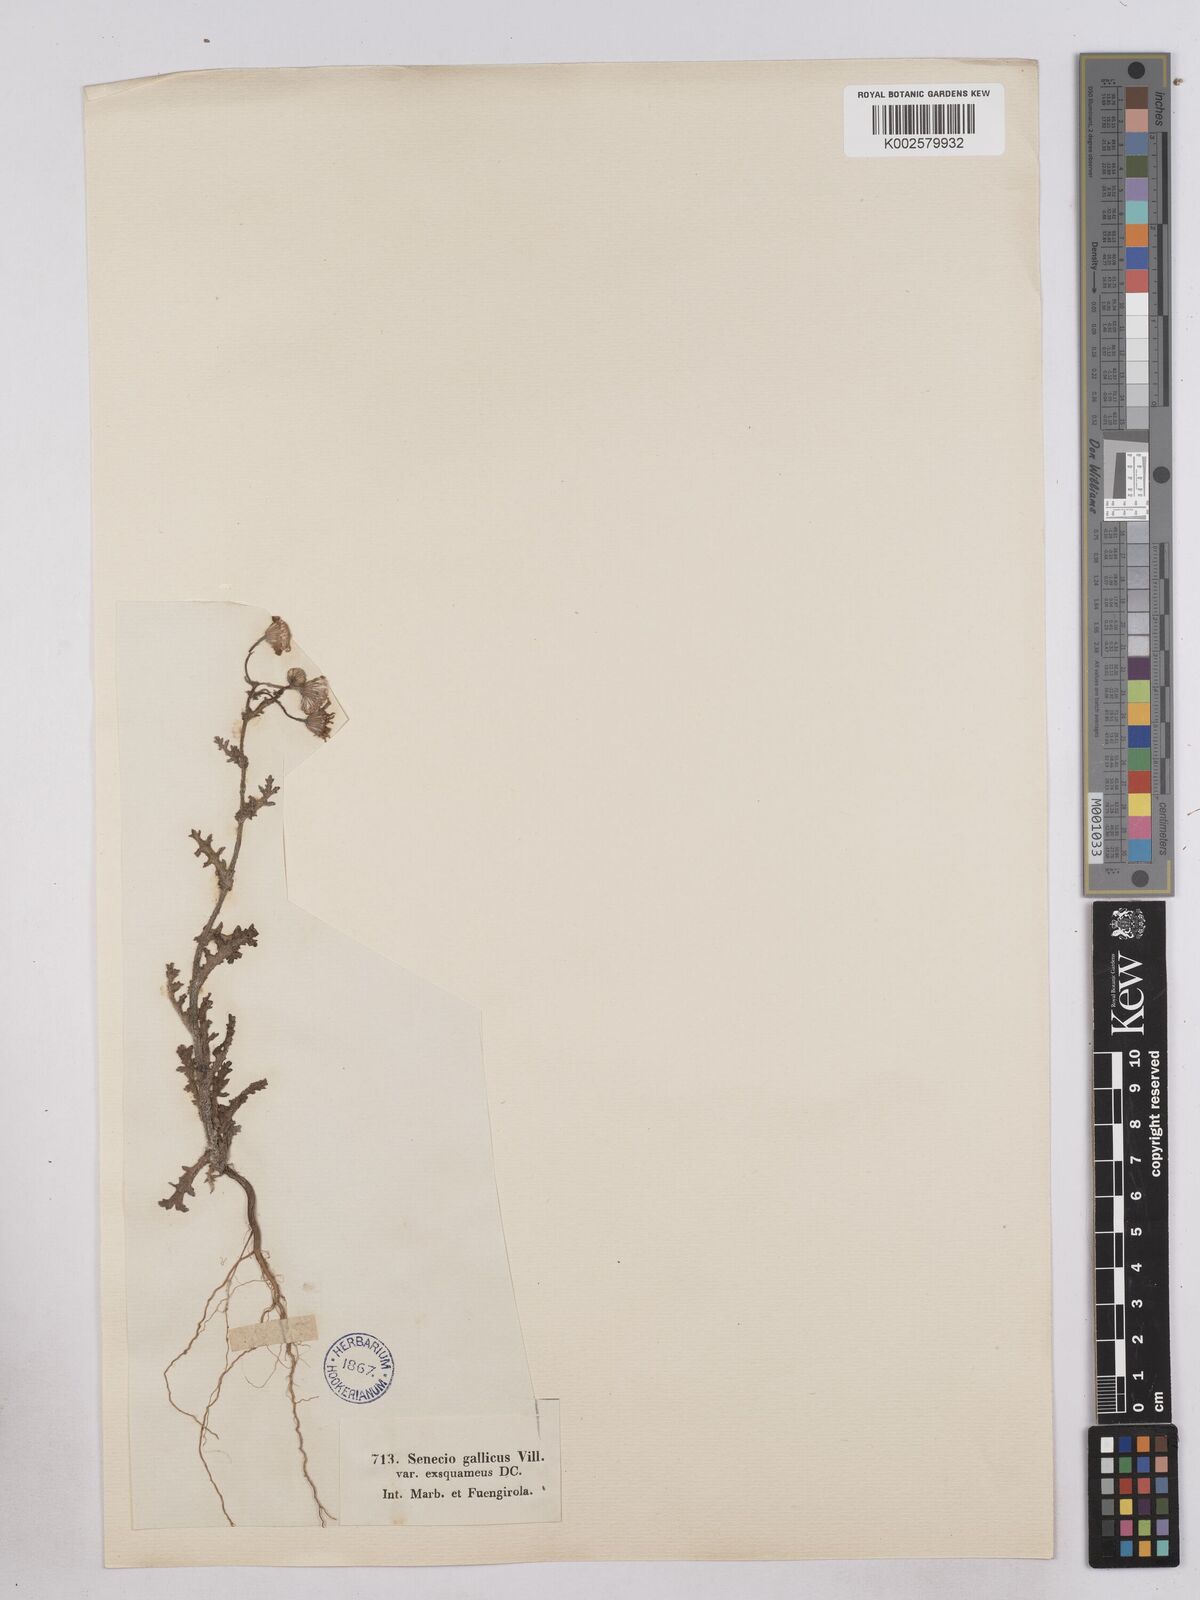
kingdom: Plantae
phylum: Tracheophyta
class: Magnoliopsida
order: Asterales
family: Asteraceae
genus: Senecio
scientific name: Senecio gallicus
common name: French groundsel
